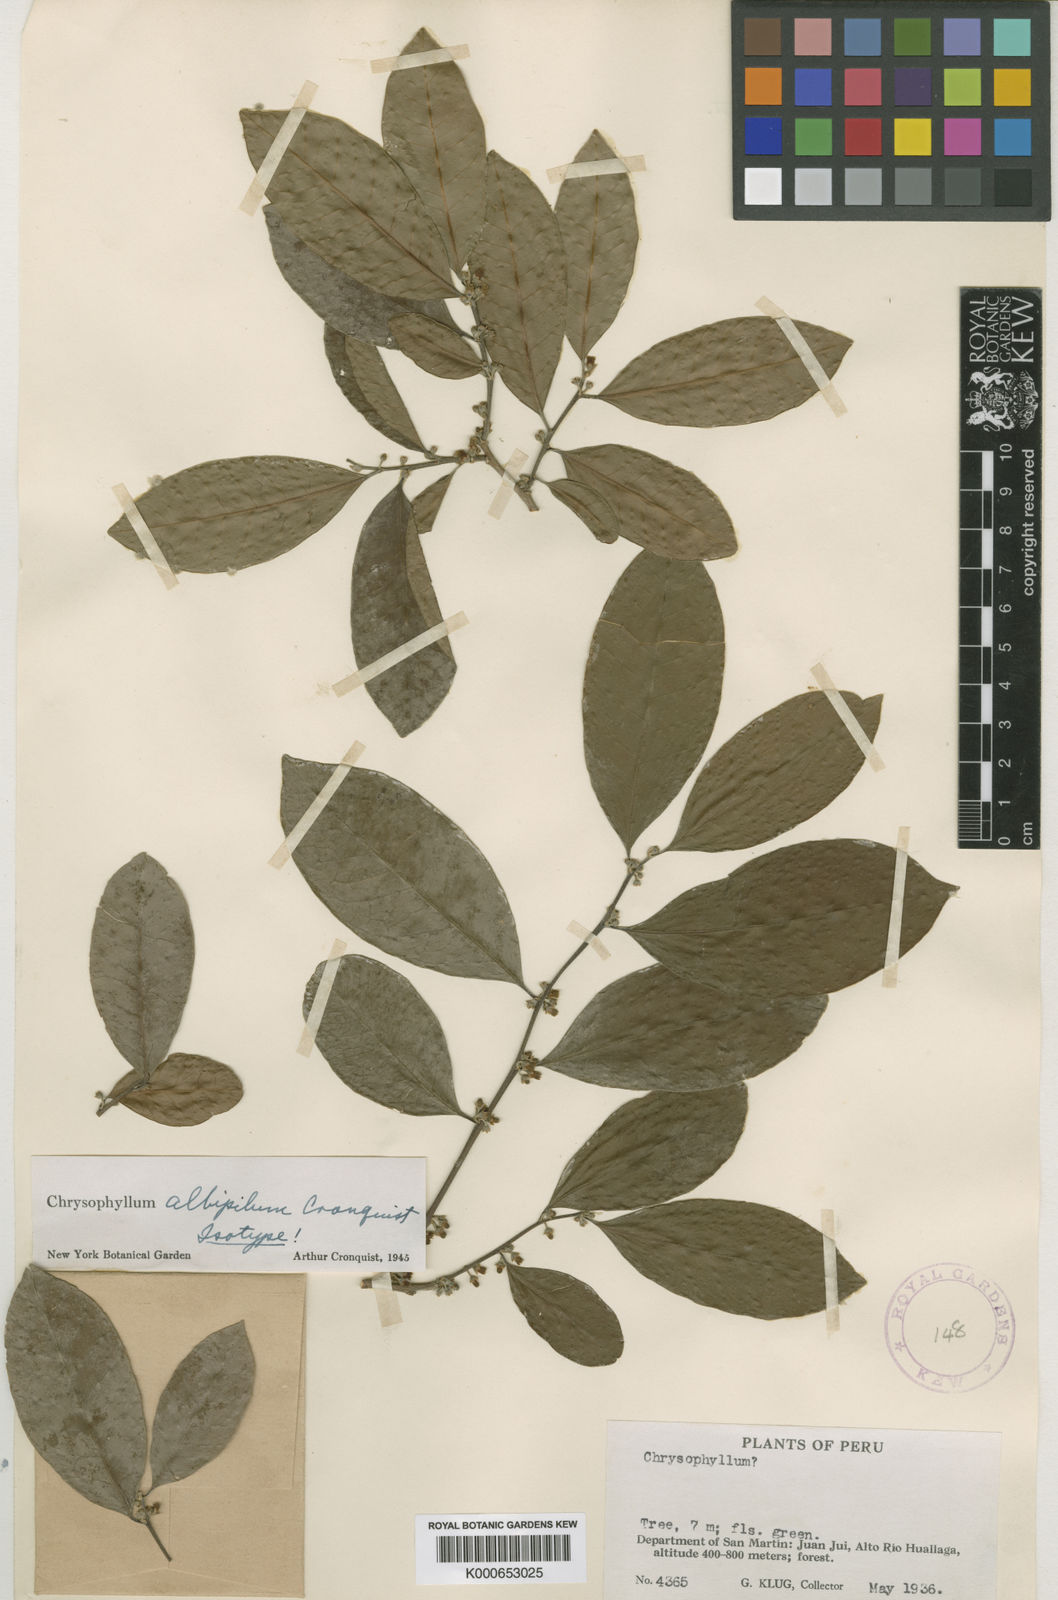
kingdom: Plantae
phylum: Tracheophyta
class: Magnoliopsida
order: Ericales
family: Sapotaceae
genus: Chrysophyllum
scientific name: Chrysophyllum albipilum
